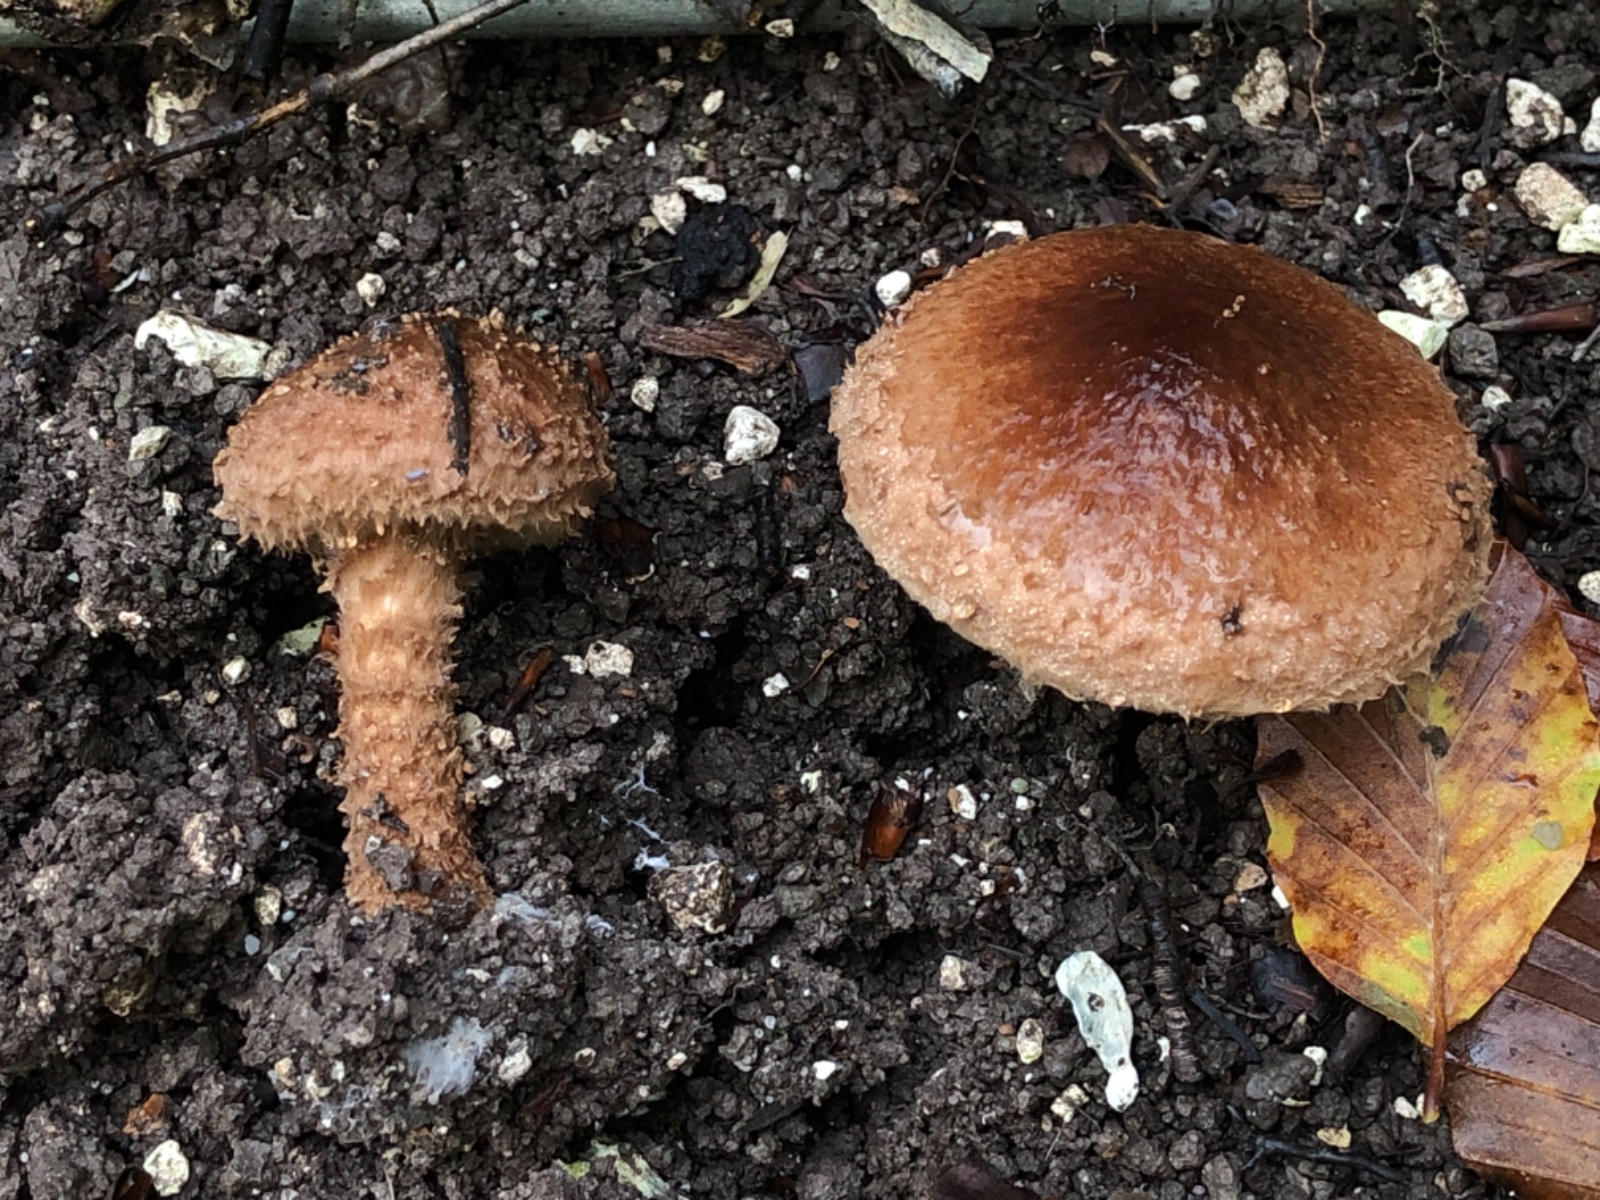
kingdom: Fungi
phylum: Basidiomycota
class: Agaricomycetes
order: Agaricales
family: Agaricaceae
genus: Echinoderma
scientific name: Echinoderma calcicola
